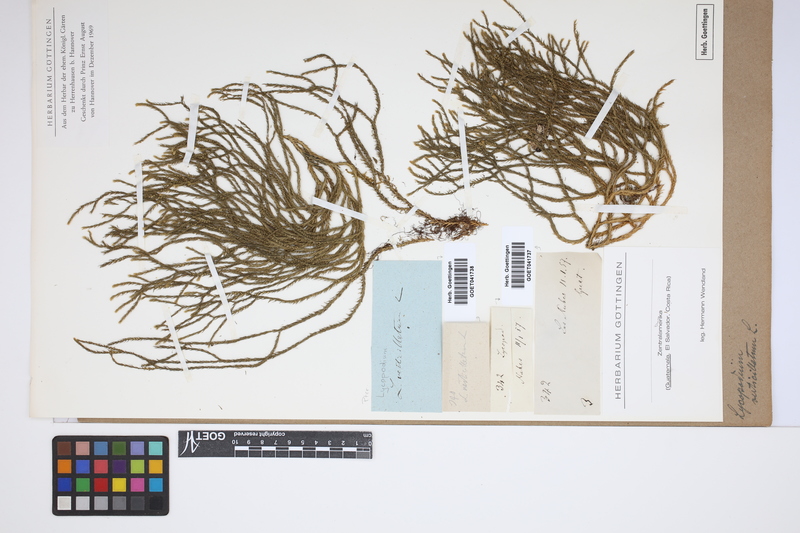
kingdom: Plantae
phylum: Tracheophyta
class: Lycopodiopsida
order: Lycopodiales
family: Lycopodiaceae
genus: Phlegmariurus
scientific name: Phlegmariurus verticillatus
